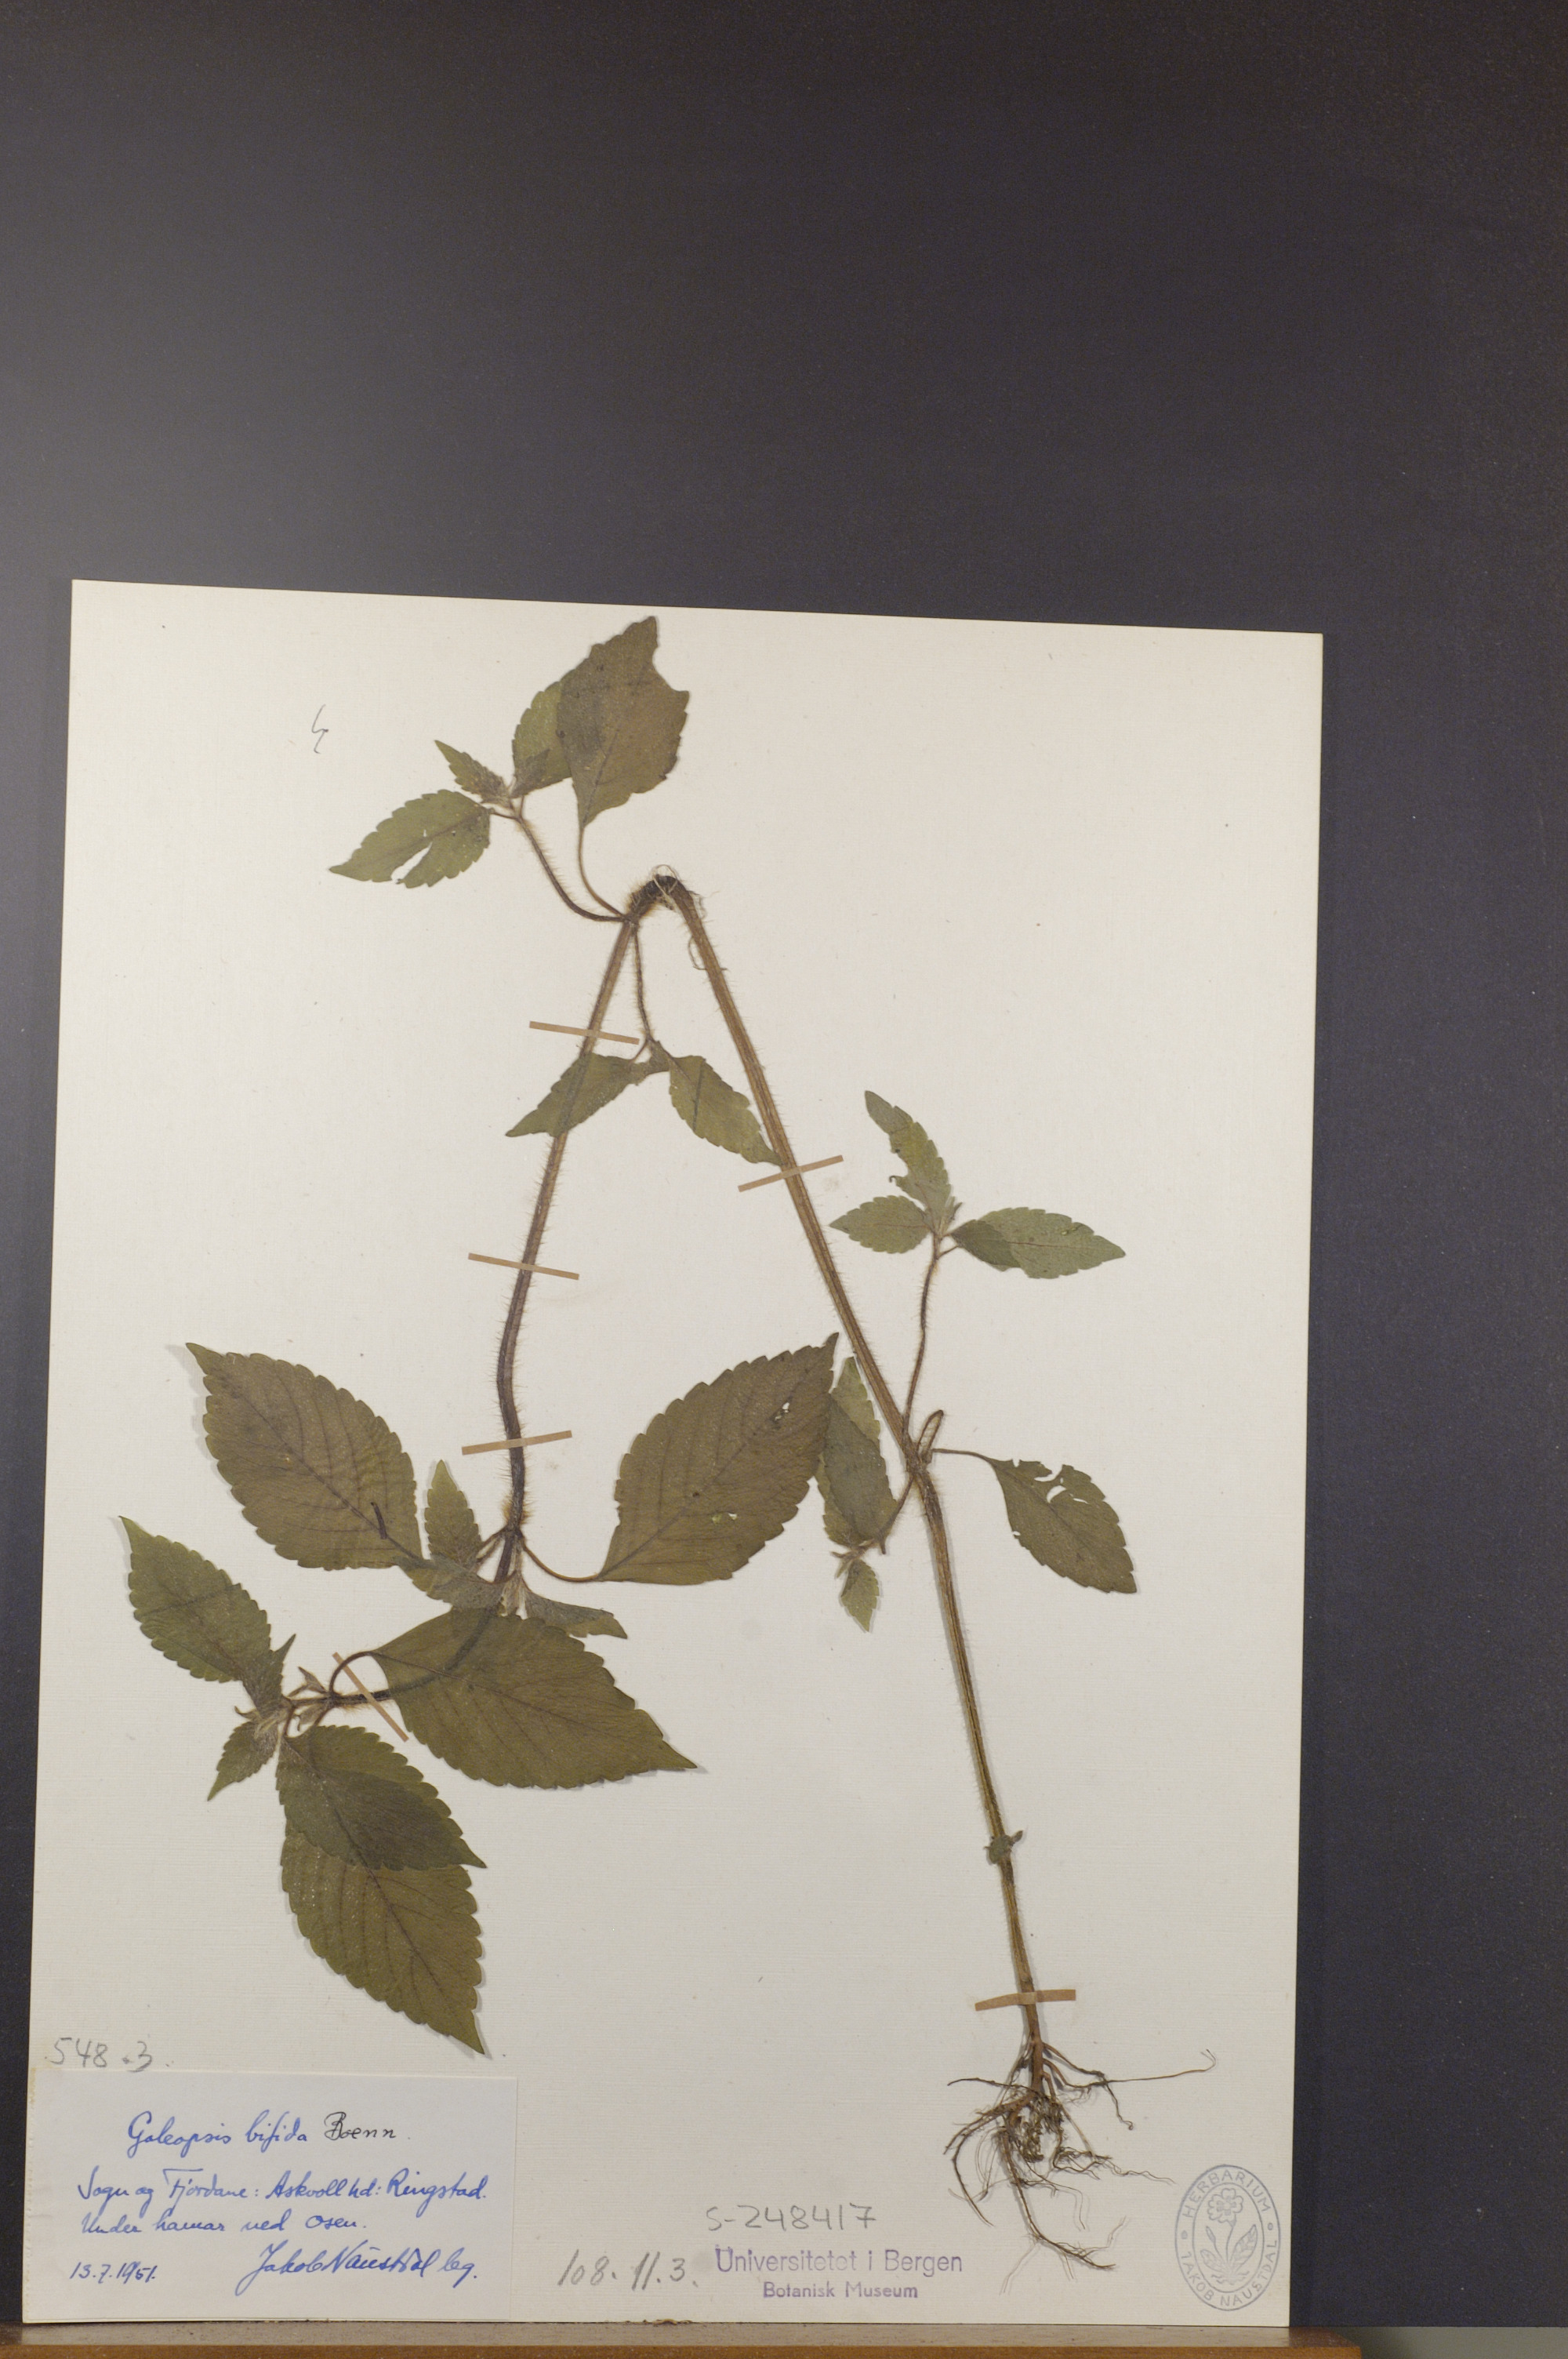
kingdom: Plantae
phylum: Tracheophyta
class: Magnoliopsida
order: Lamiales
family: Lamiaceae
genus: Galeopsis
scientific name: Galeopsis bifida
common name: Bifid hemp-nettle
